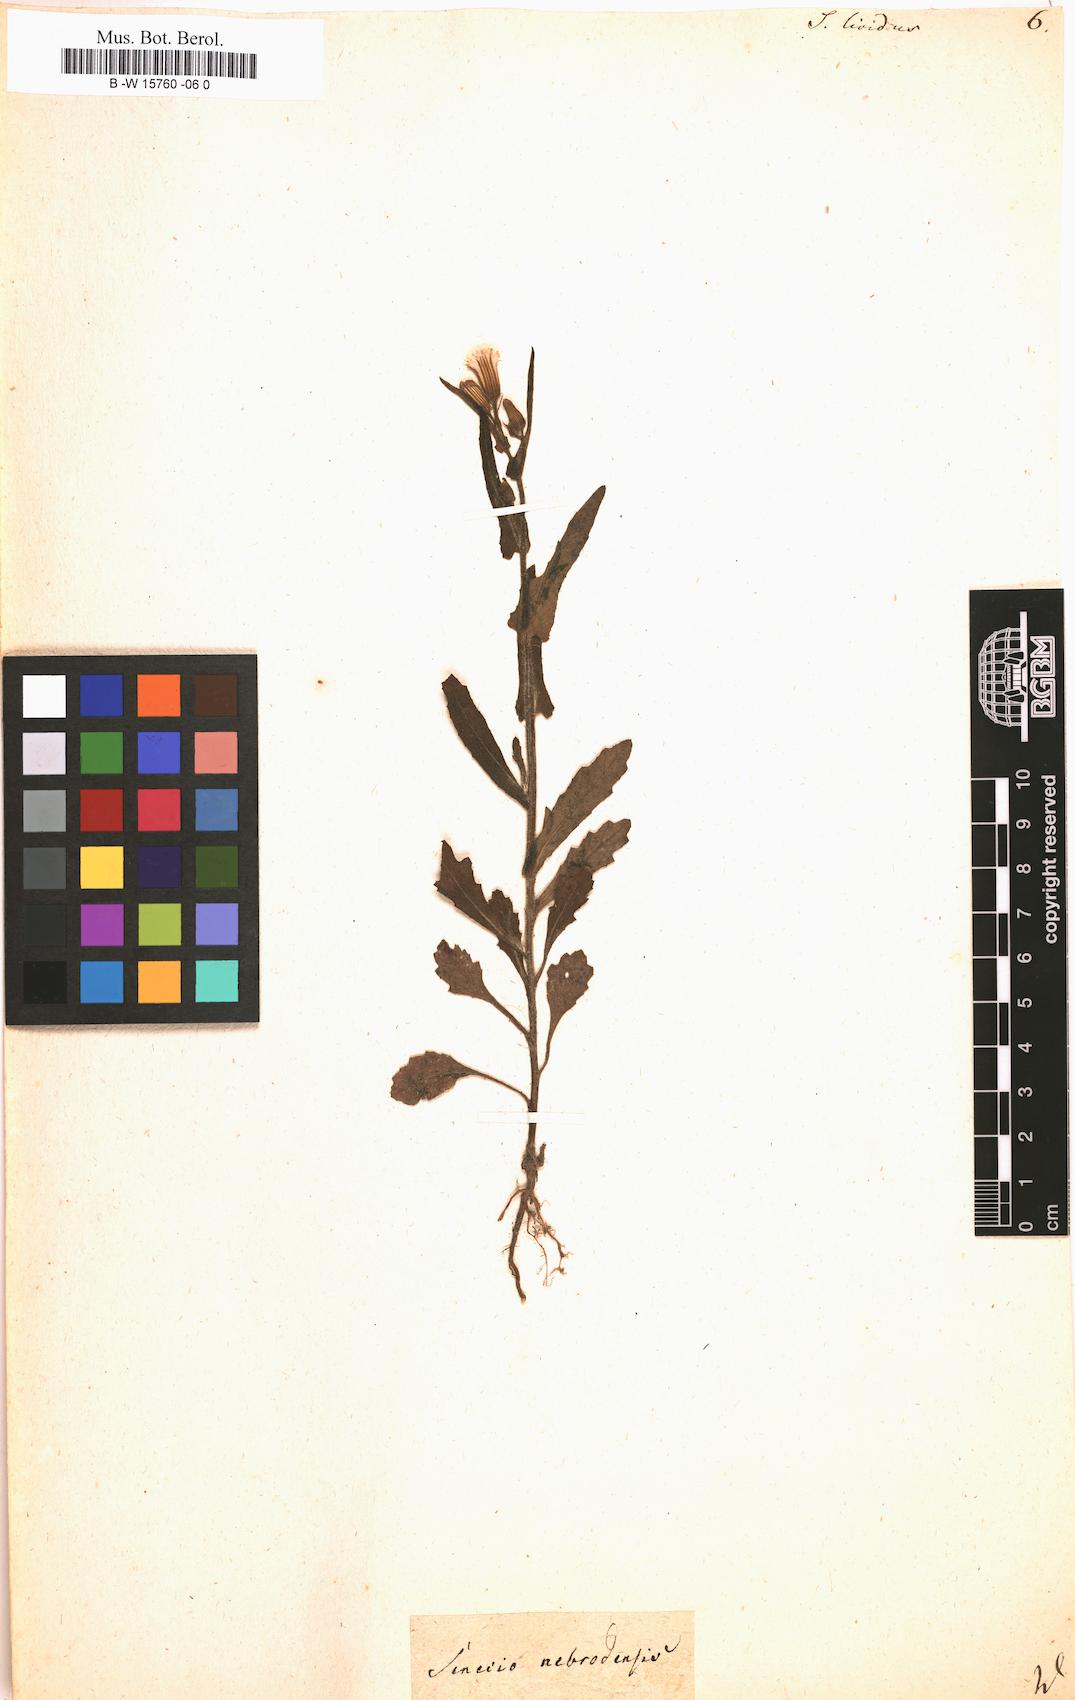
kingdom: Plantae
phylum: Tracheophyta
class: Magnoliopsida
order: Asterales
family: Asteraceae
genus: Senecio
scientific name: Senecio lividus
